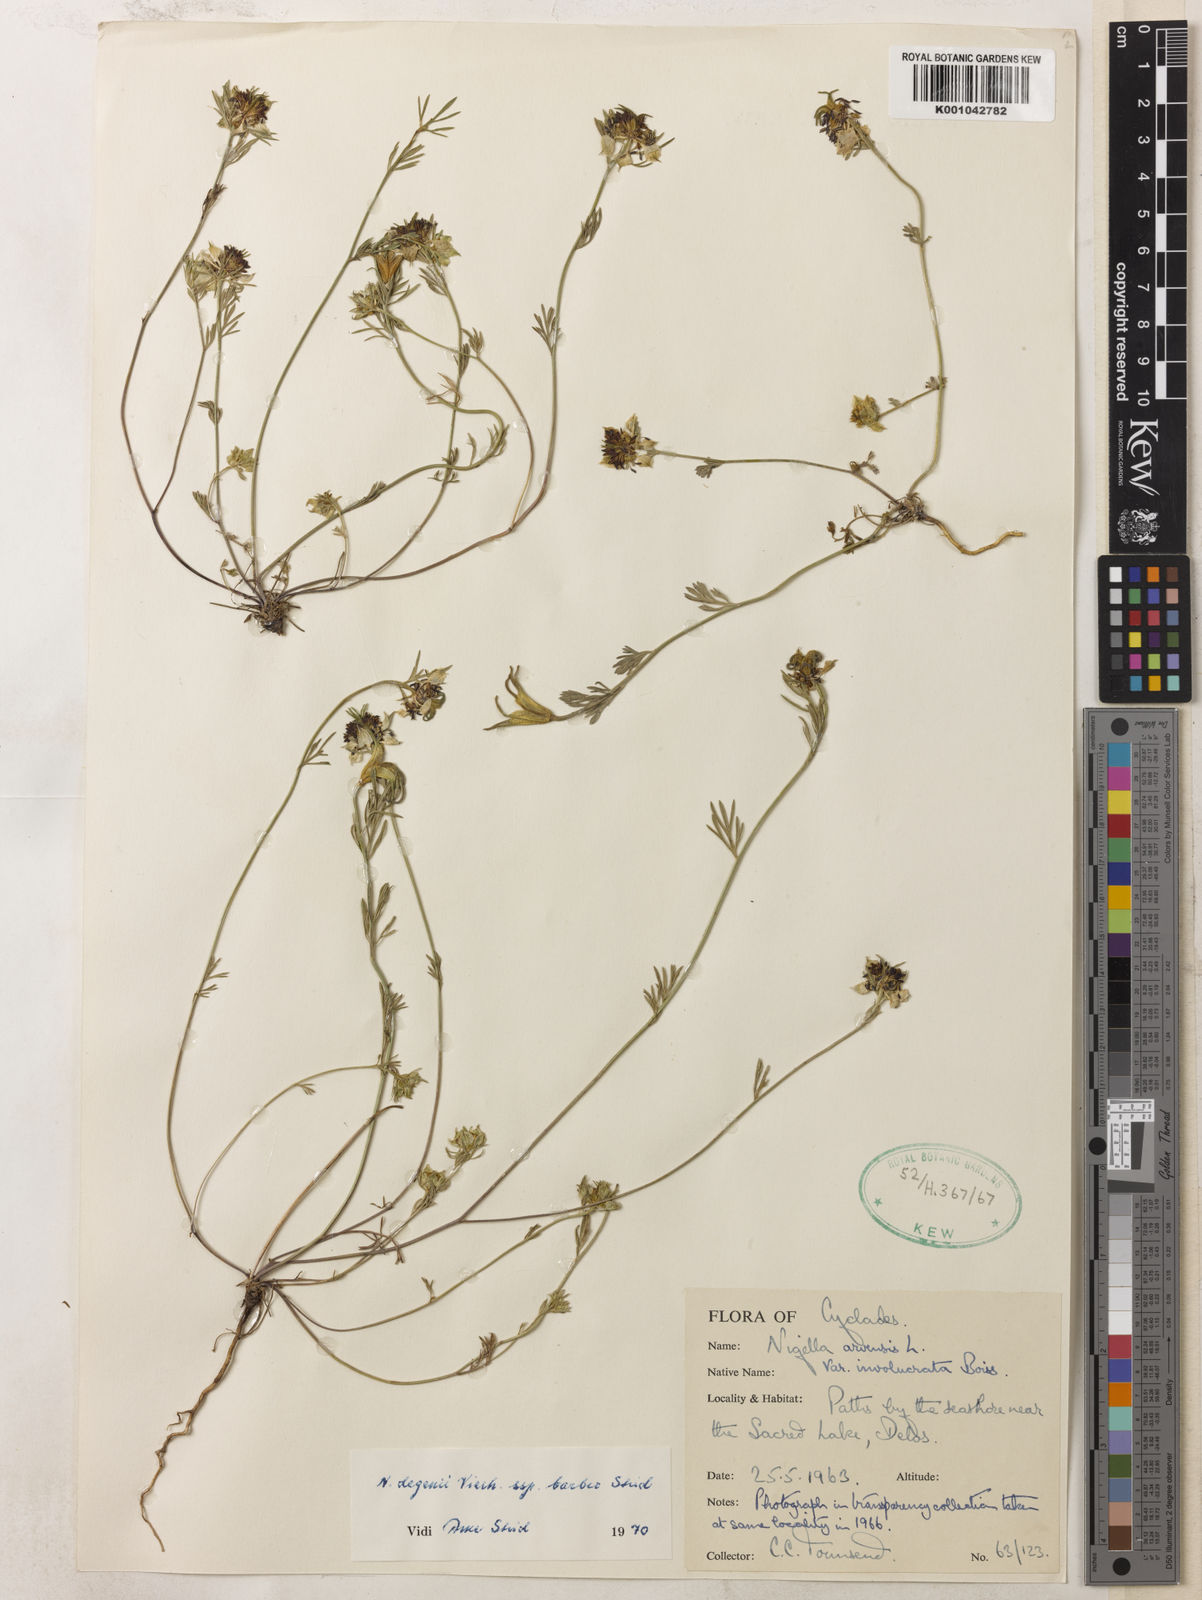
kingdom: Plantae
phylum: Tracheophyta
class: Magnoliopsida
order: Ranunculales
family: Ranunculaceae
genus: Nigella
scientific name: Nigella degenii
